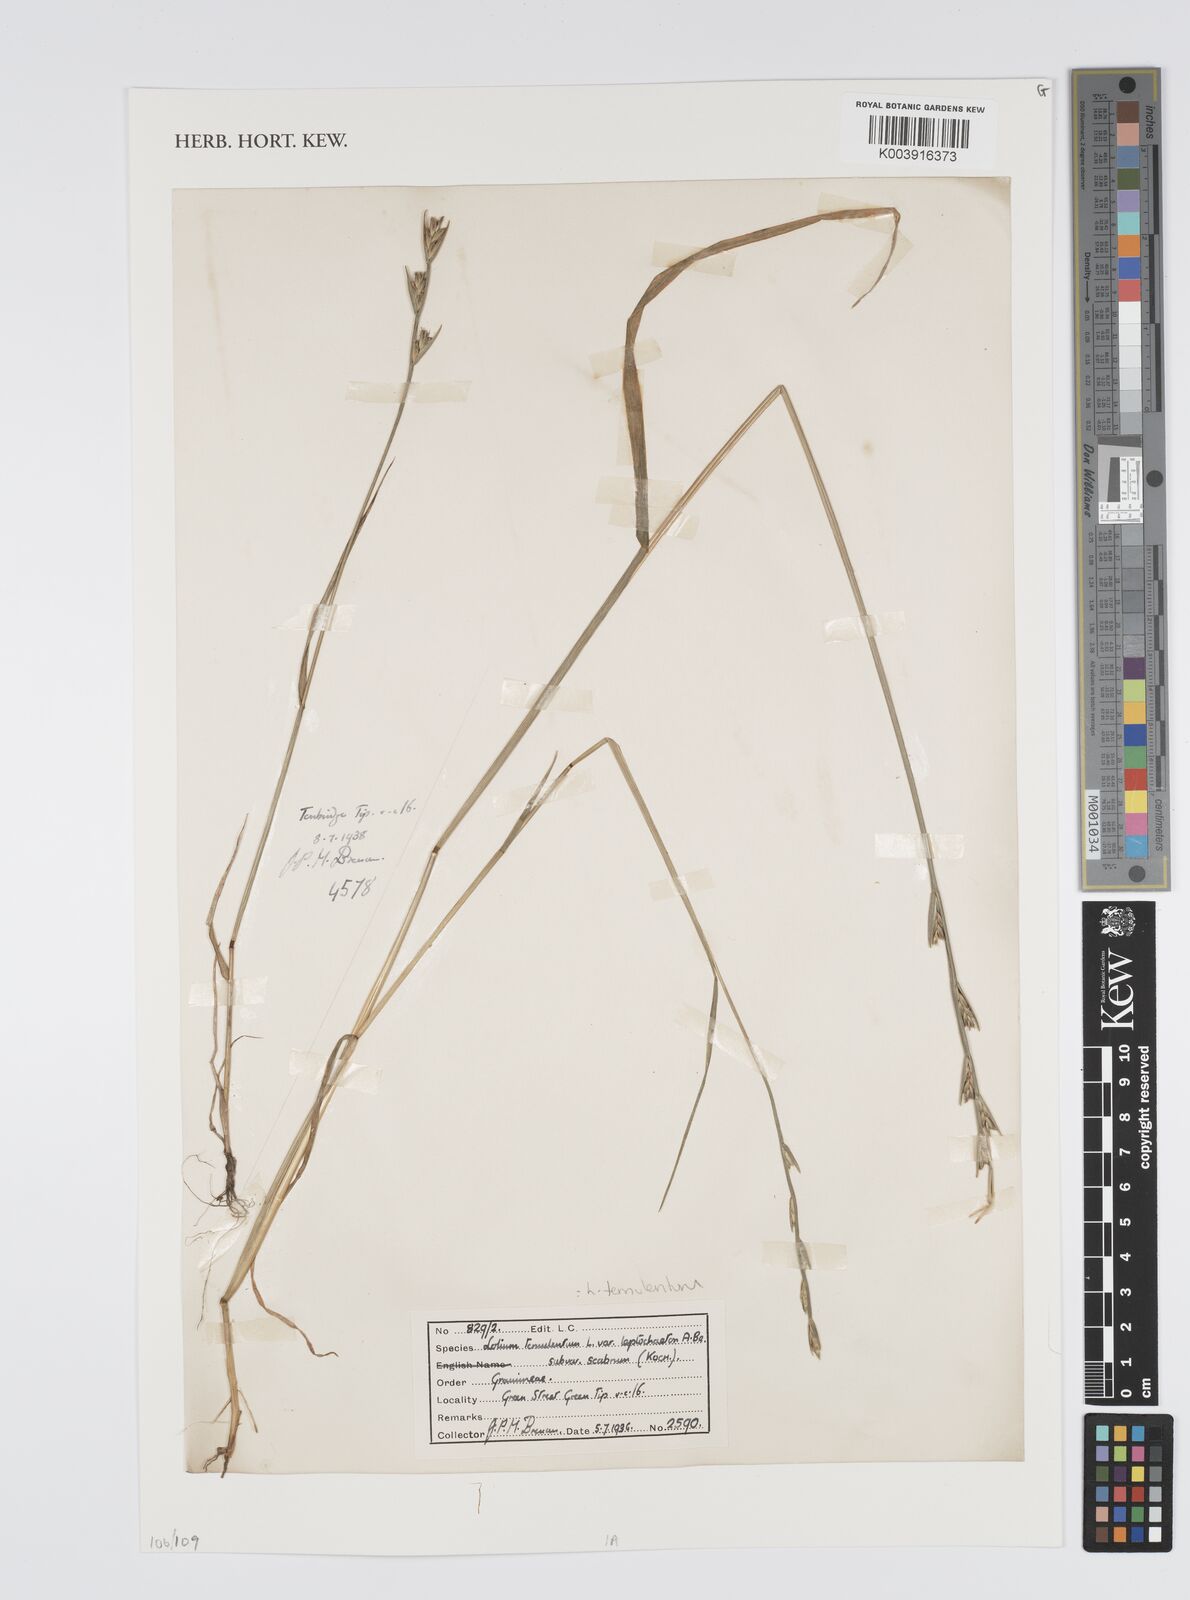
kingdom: Plantae
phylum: Tracheophyta
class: Liliopsida
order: Poales
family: Poaceae
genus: Lolium
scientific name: Lolium temulentum
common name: Darnel
